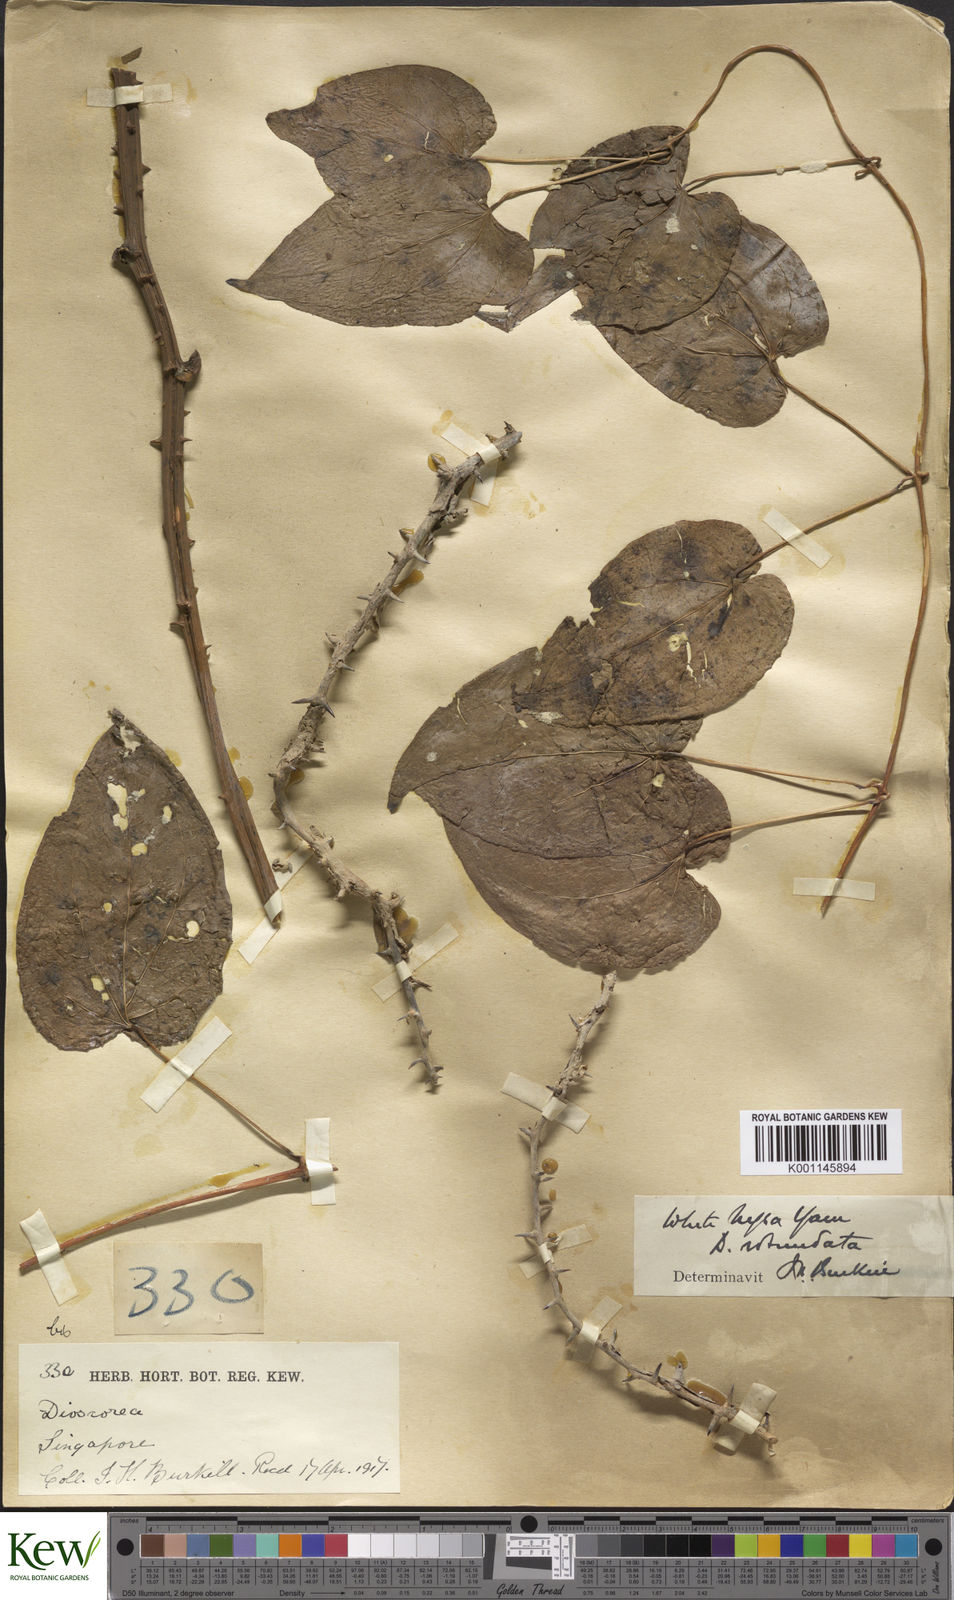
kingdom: Plantae
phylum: Tracheophyta
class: Liliopsida
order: Dioscoreales
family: Dioscoreaceae
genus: Dioscorea
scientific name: Dioscorea cayenensis
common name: Attoto yam
